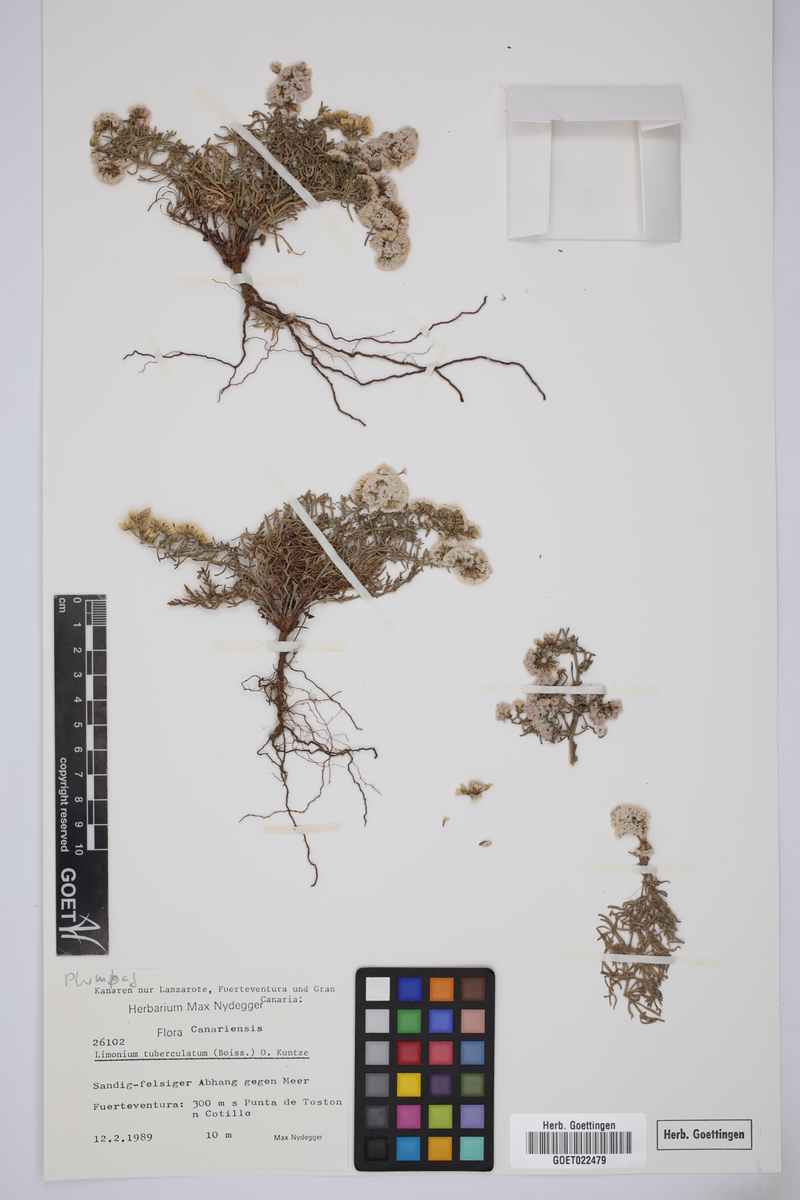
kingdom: Plantae
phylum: Tracheophyta
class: Magnoliopsida
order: Caryophyllales
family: Plumbaginaceae
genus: Limonium
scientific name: Limonium tuberculatum
